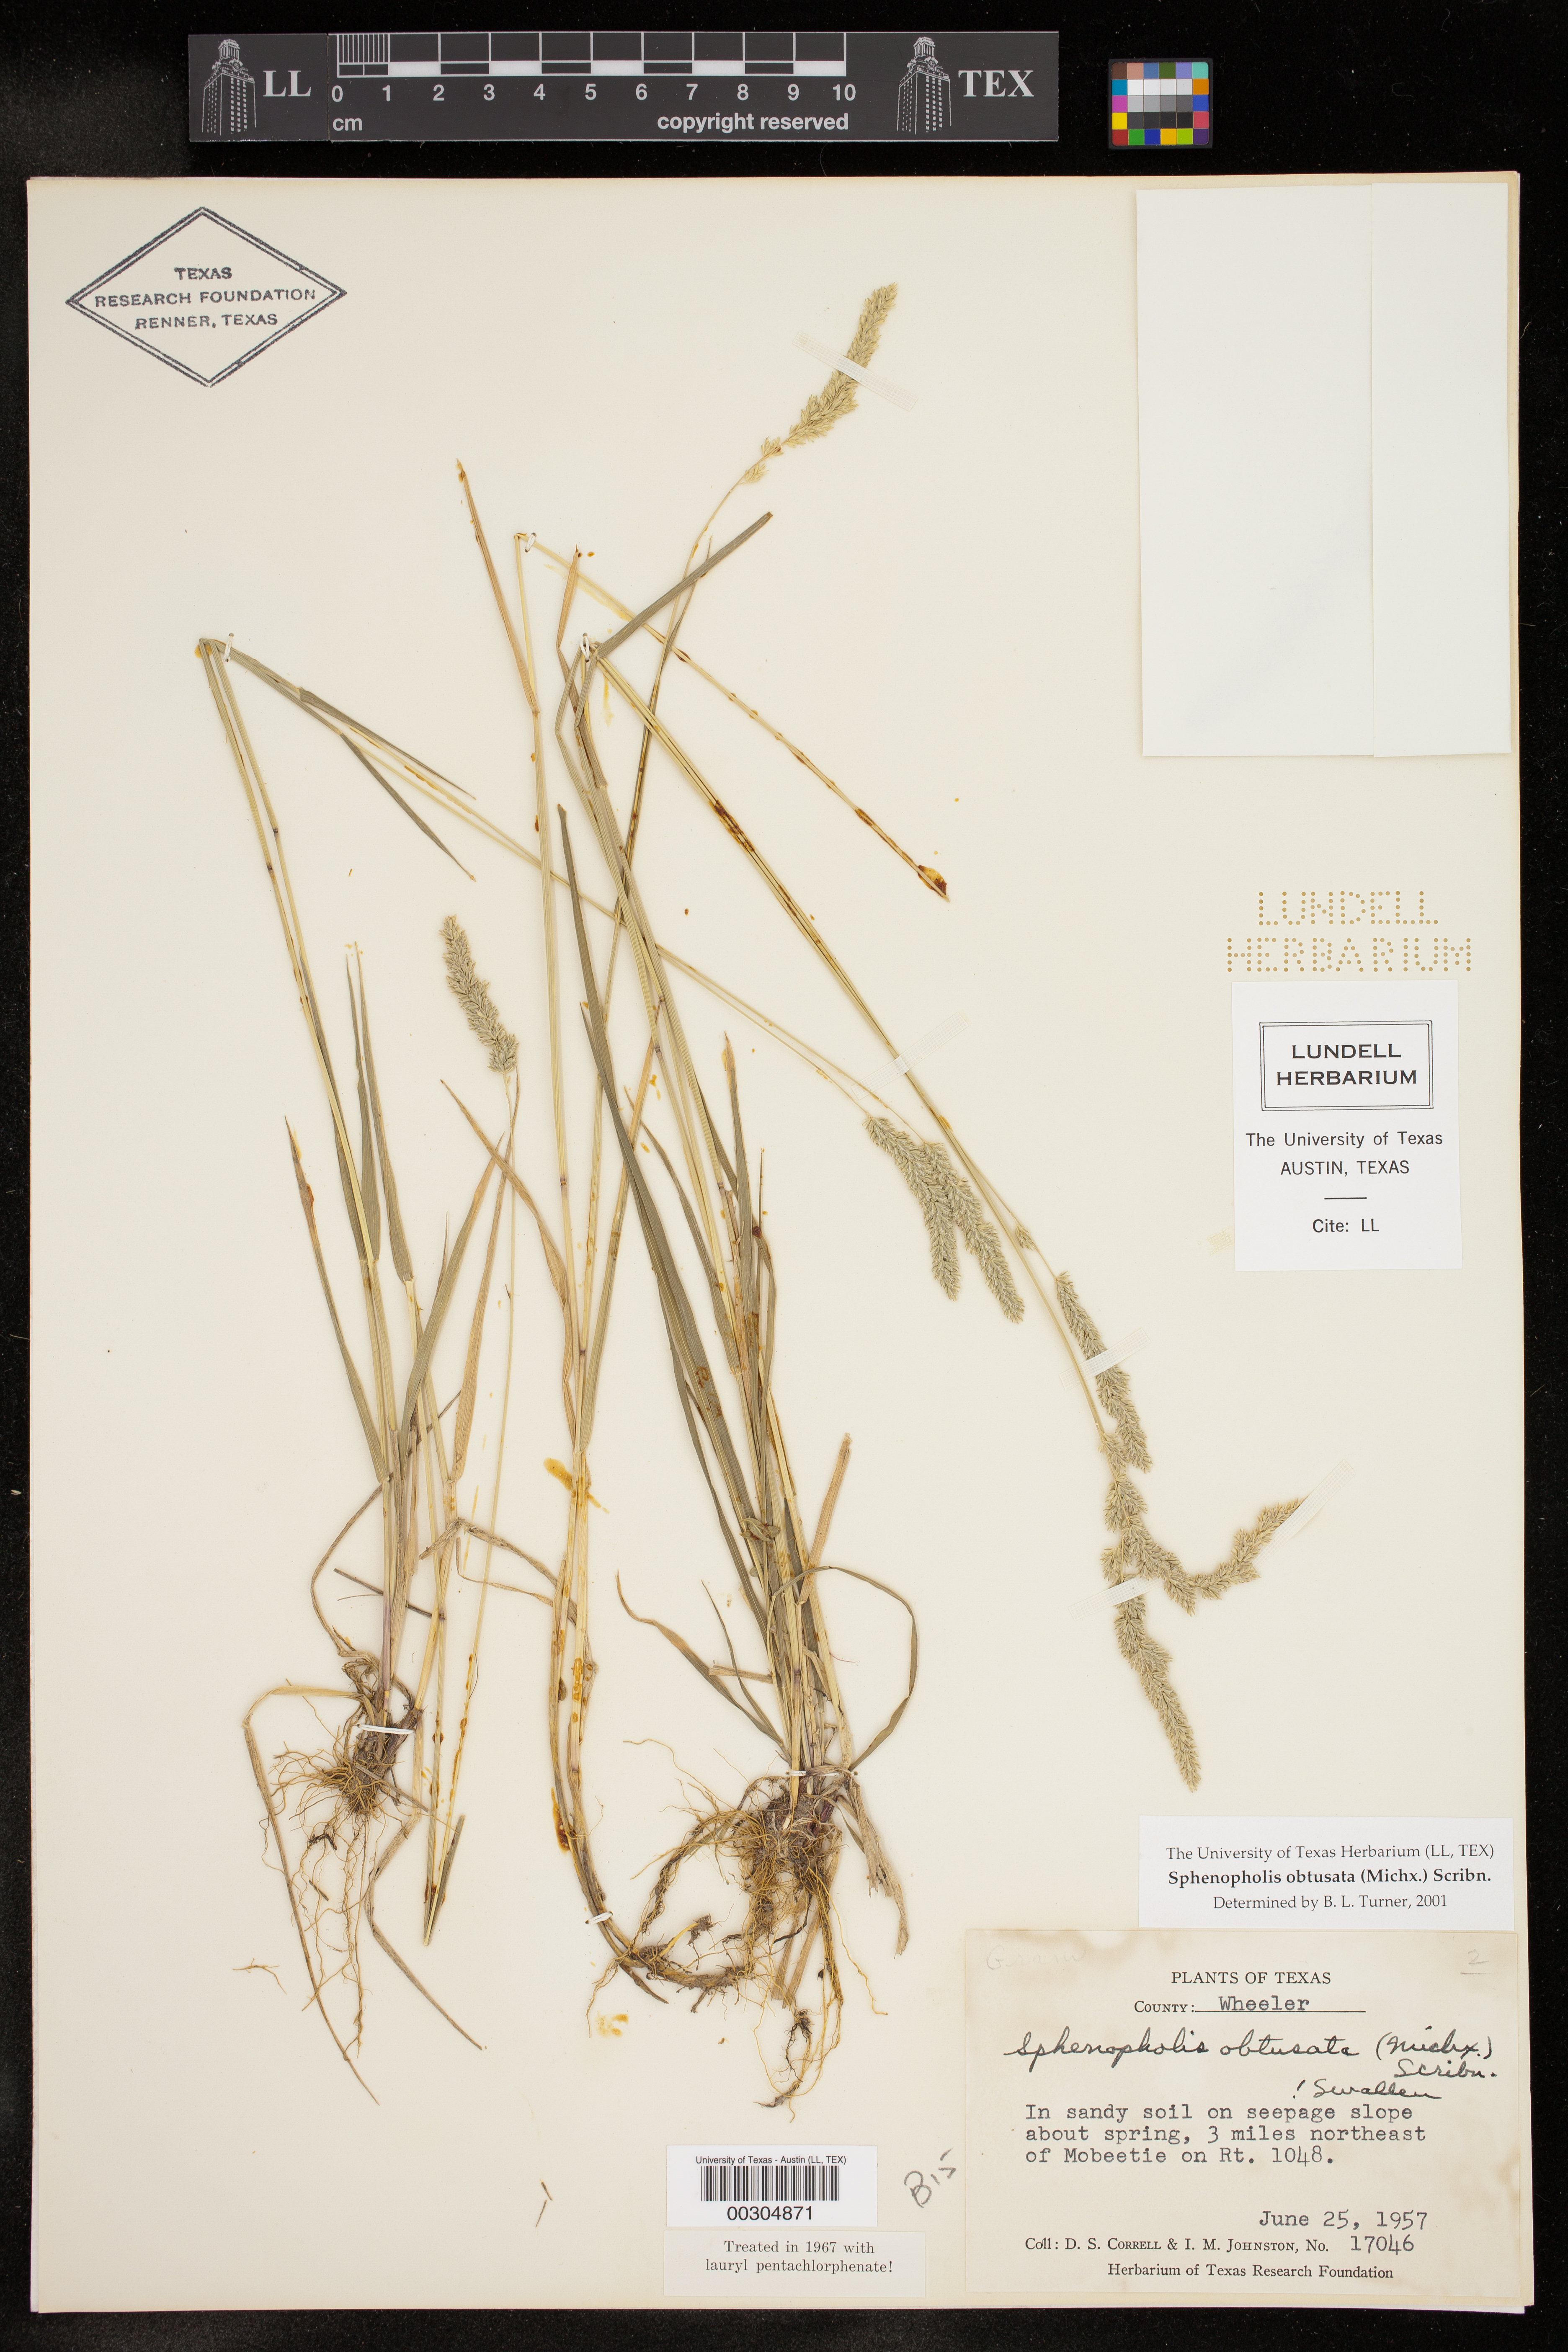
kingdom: Plantae
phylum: Tracheophyta
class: Liliopsida
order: Poales
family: Poaceae
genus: Sphenopholis
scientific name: Sphenopholis obtusata
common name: Prairie grass
